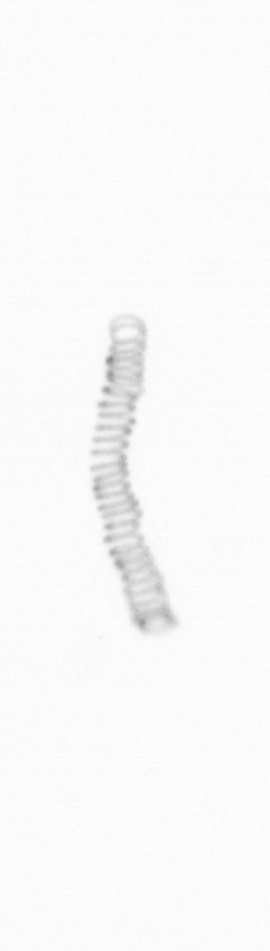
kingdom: Chromista
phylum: Ochrophyta
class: Bacillariophyceae
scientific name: Bacillariophyceae
